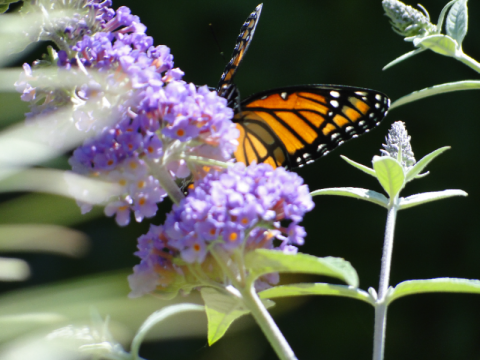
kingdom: Animalia
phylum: Arthropoda
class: Insecta
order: Lepidoptera
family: Nymphalidae
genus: Limenitis
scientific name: Limenitis archippus
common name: Viceroy
